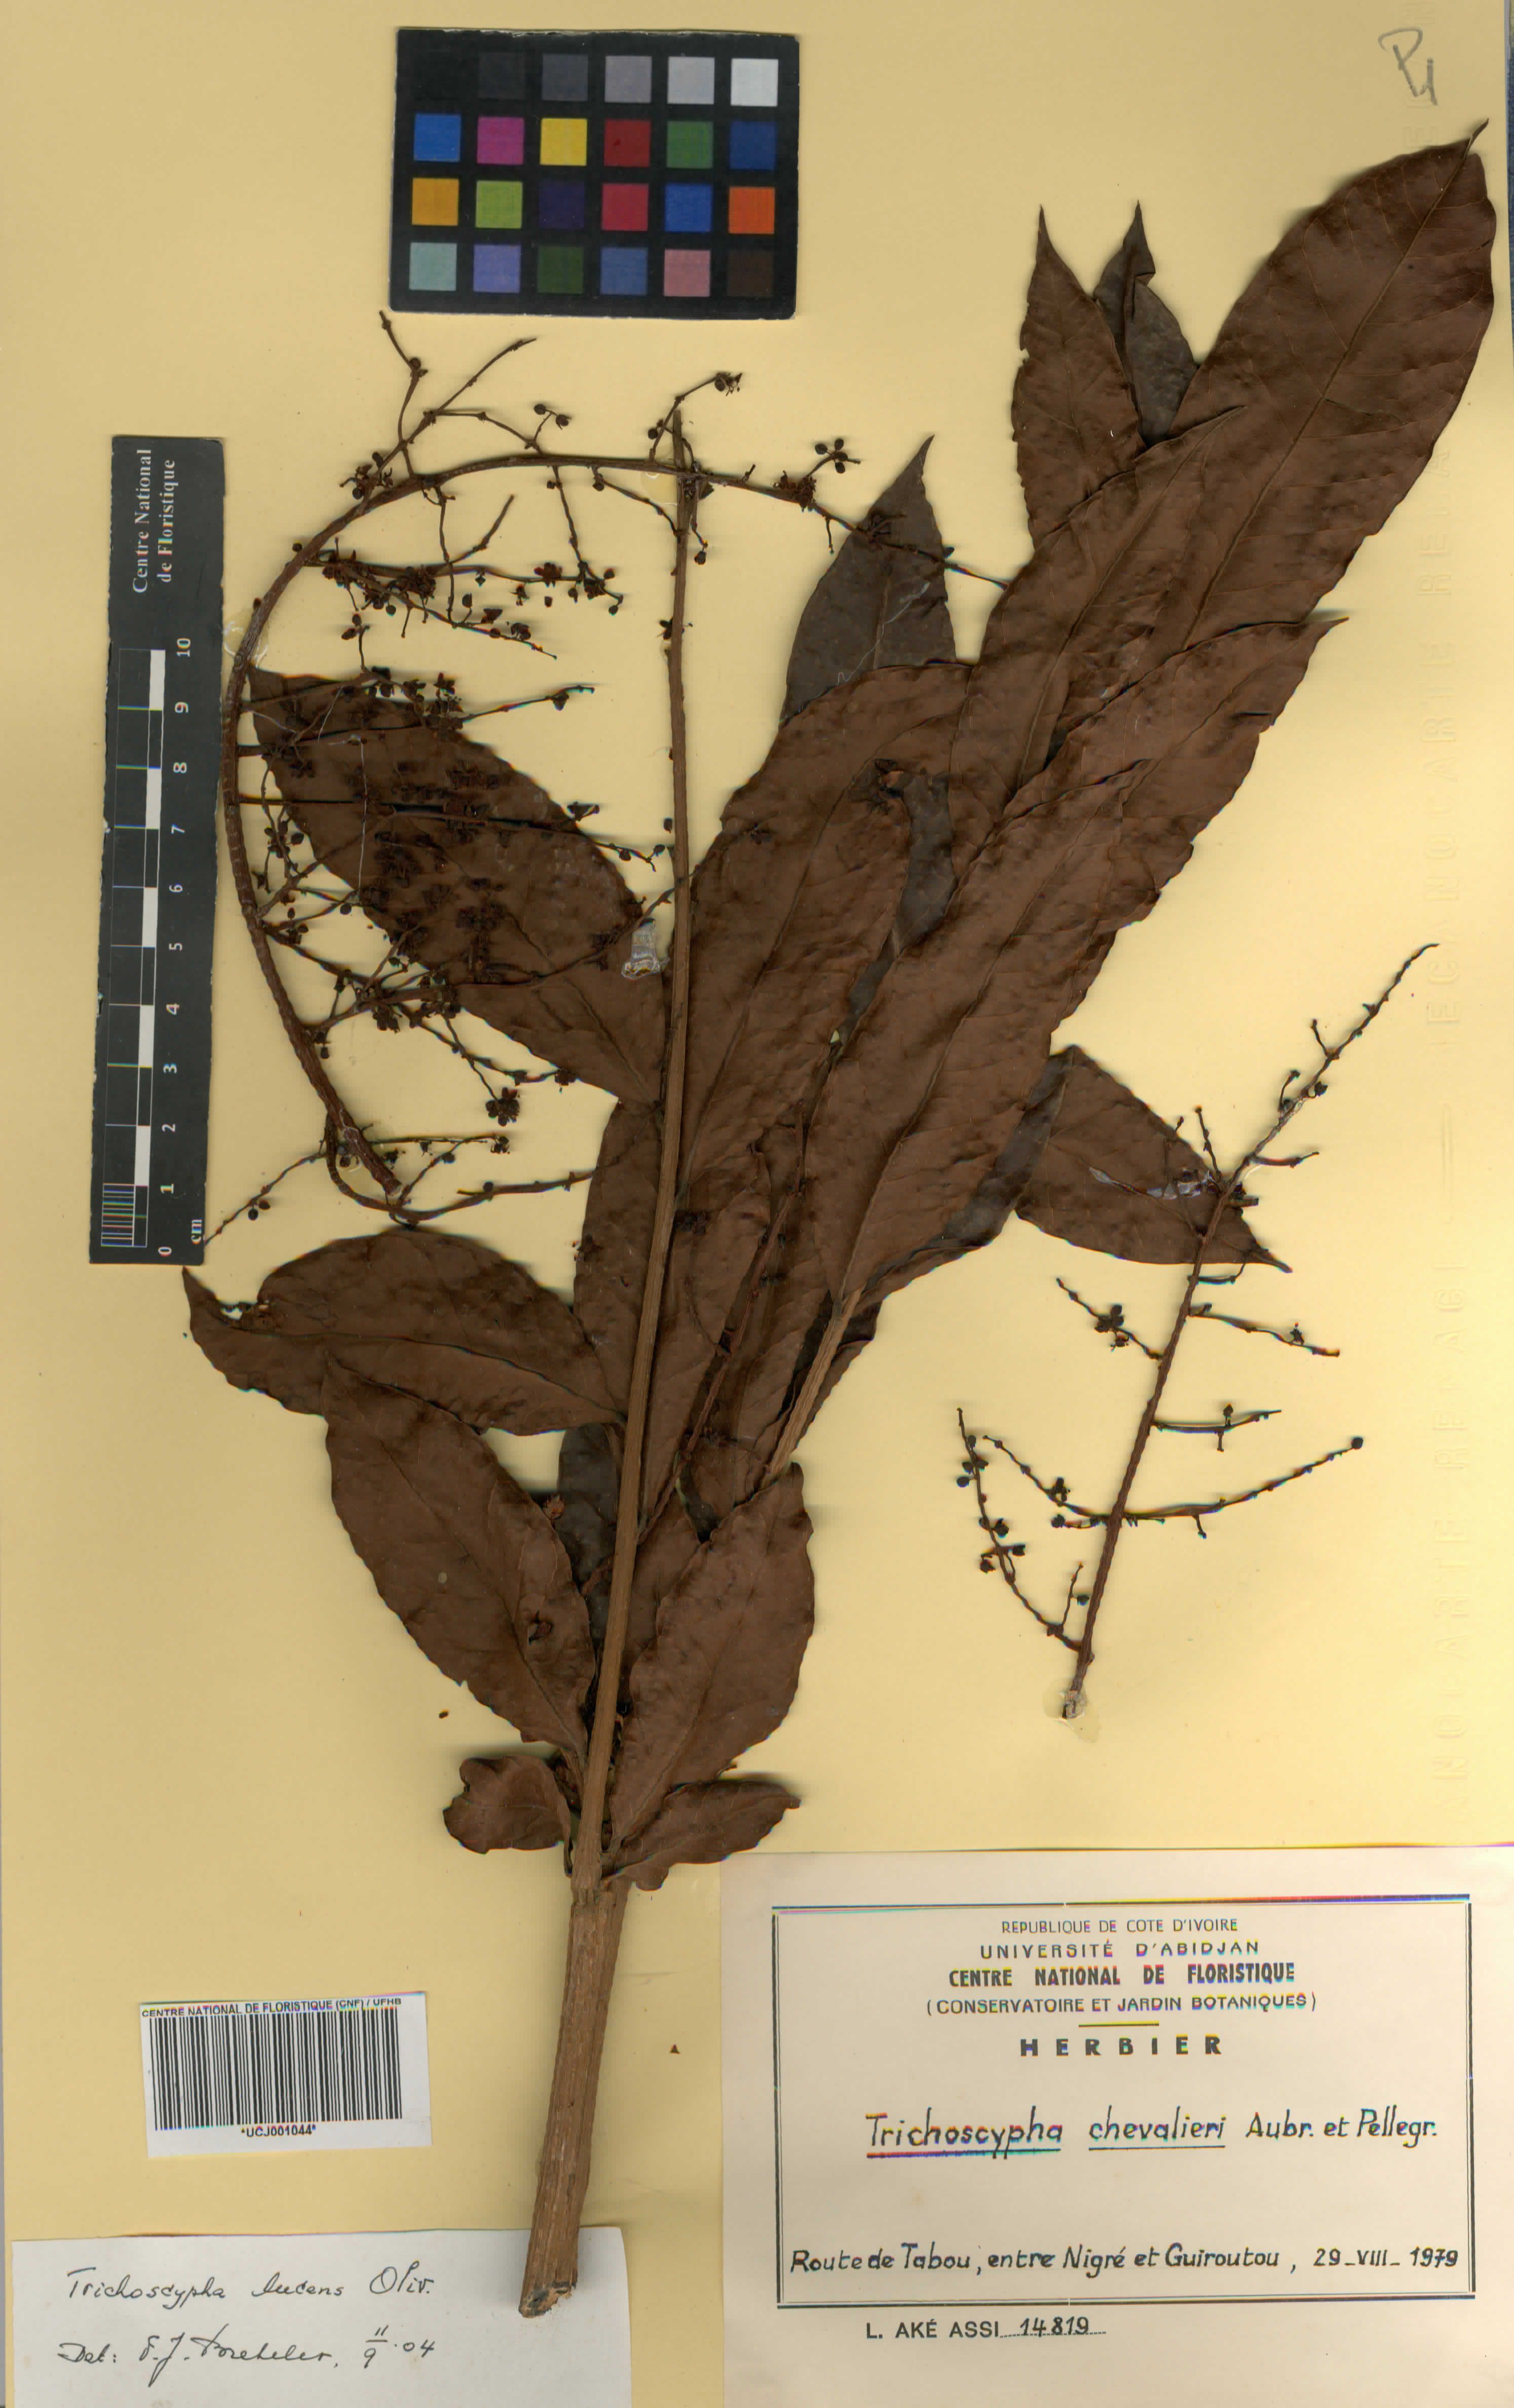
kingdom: Plantae
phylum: Tracheophyta
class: Magnoliopsida
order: Sapindales
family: Anacardiaceae
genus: Trichoscypha
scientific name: Trichoscypha lucens
